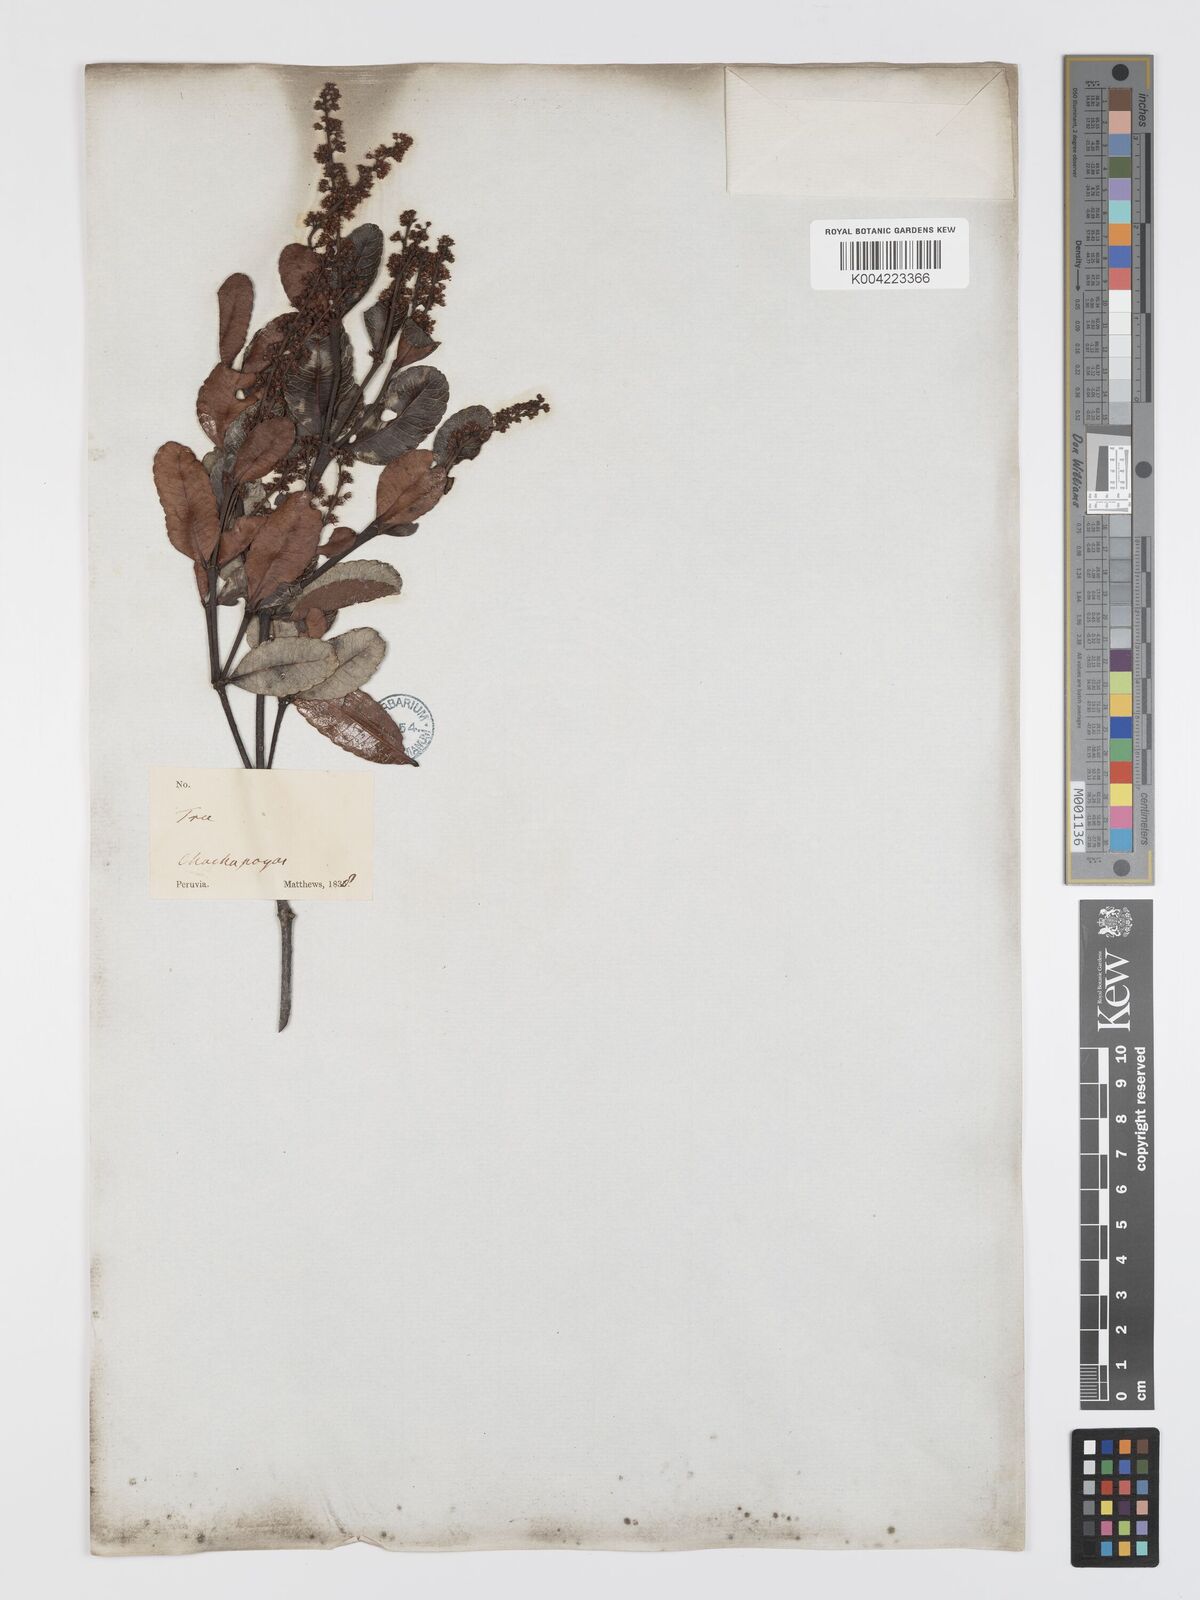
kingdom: Plantae
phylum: Tracheophyta
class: Magnoliopsida
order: Oxalidales
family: Cunoniaceae
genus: Weinmannia
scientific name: Weinmannia elliptica
